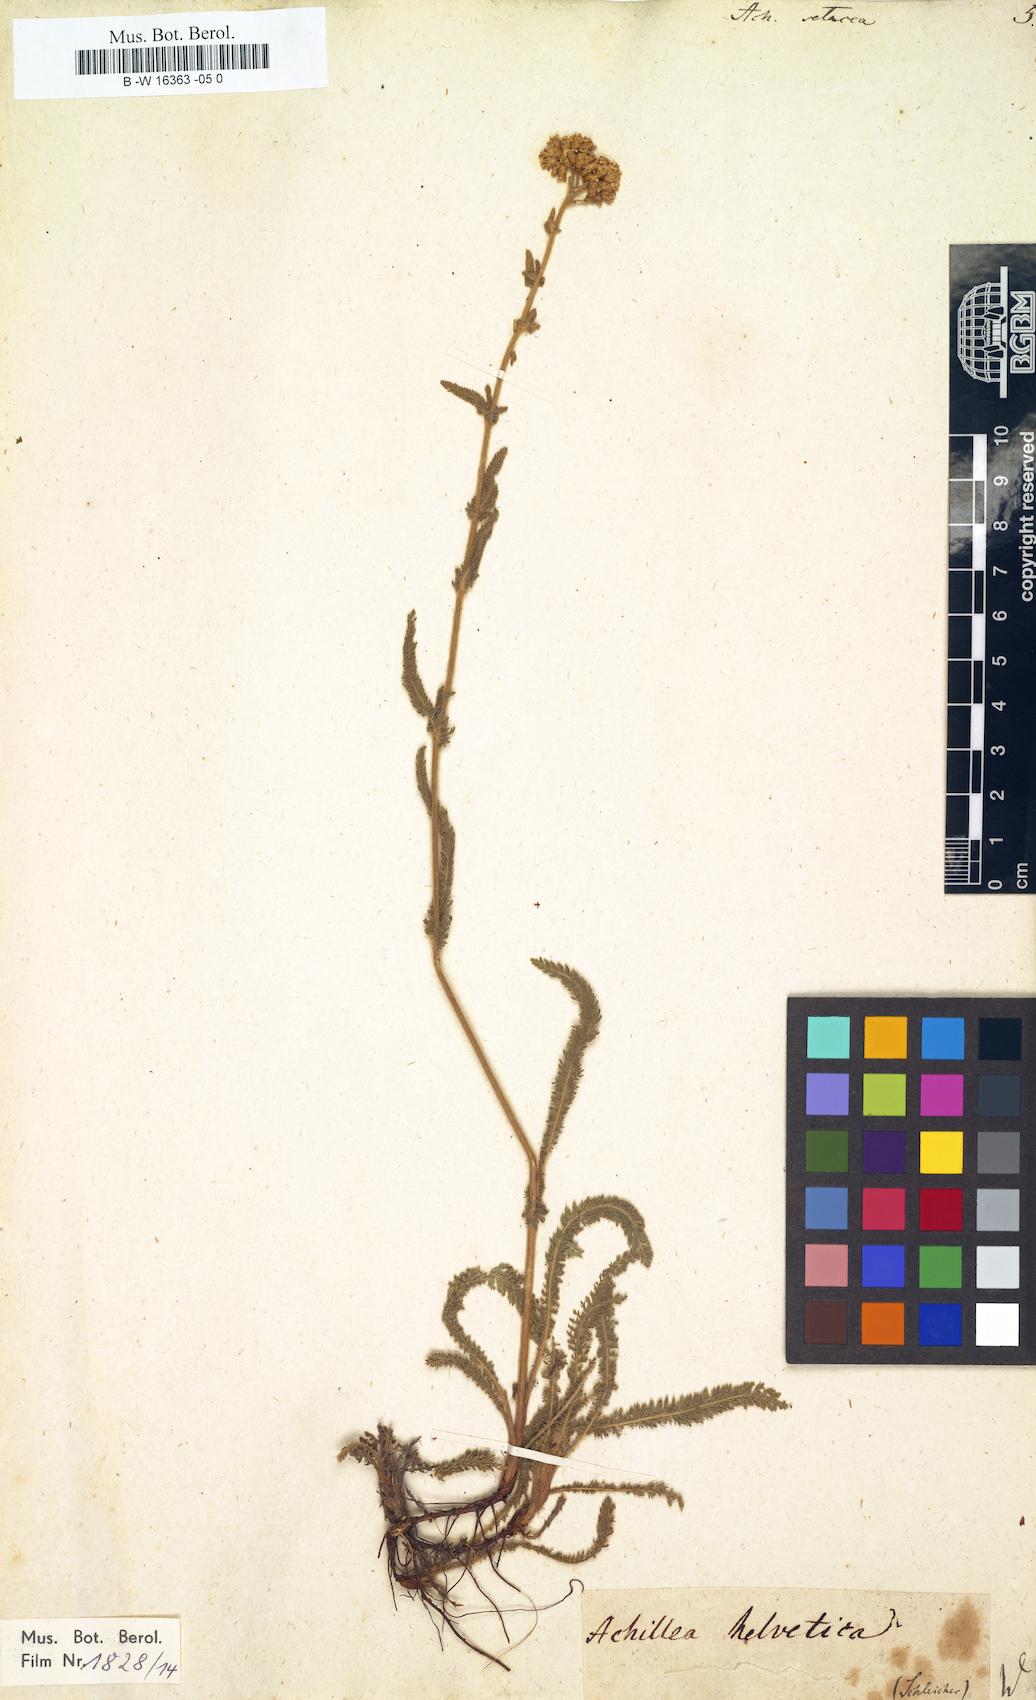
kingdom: Plantae
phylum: Tracheophyta
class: Magnoliopsida
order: Asterales
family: Asteraceae
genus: Achillea
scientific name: Achillea setacea
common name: Bristly yarrow
